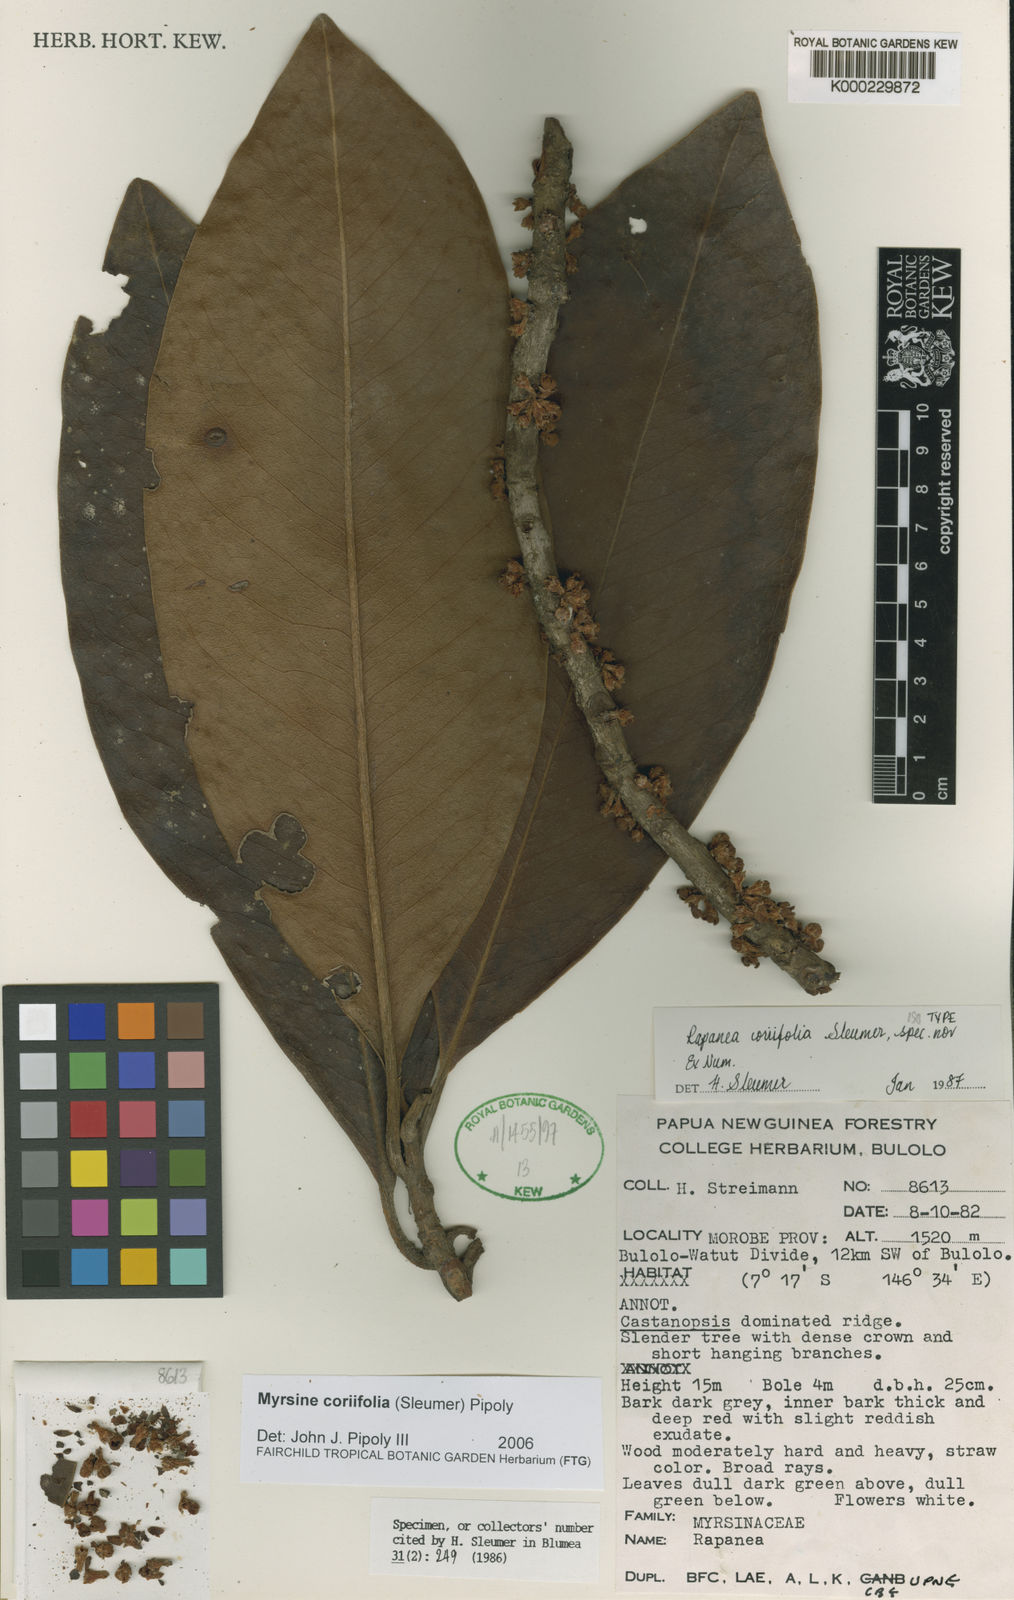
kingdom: Plantae
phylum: Tracheophyta
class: Magnoliopsida
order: Ericales
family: Primulaceae
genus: Myrsine
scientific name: Myrsine coriifolia
